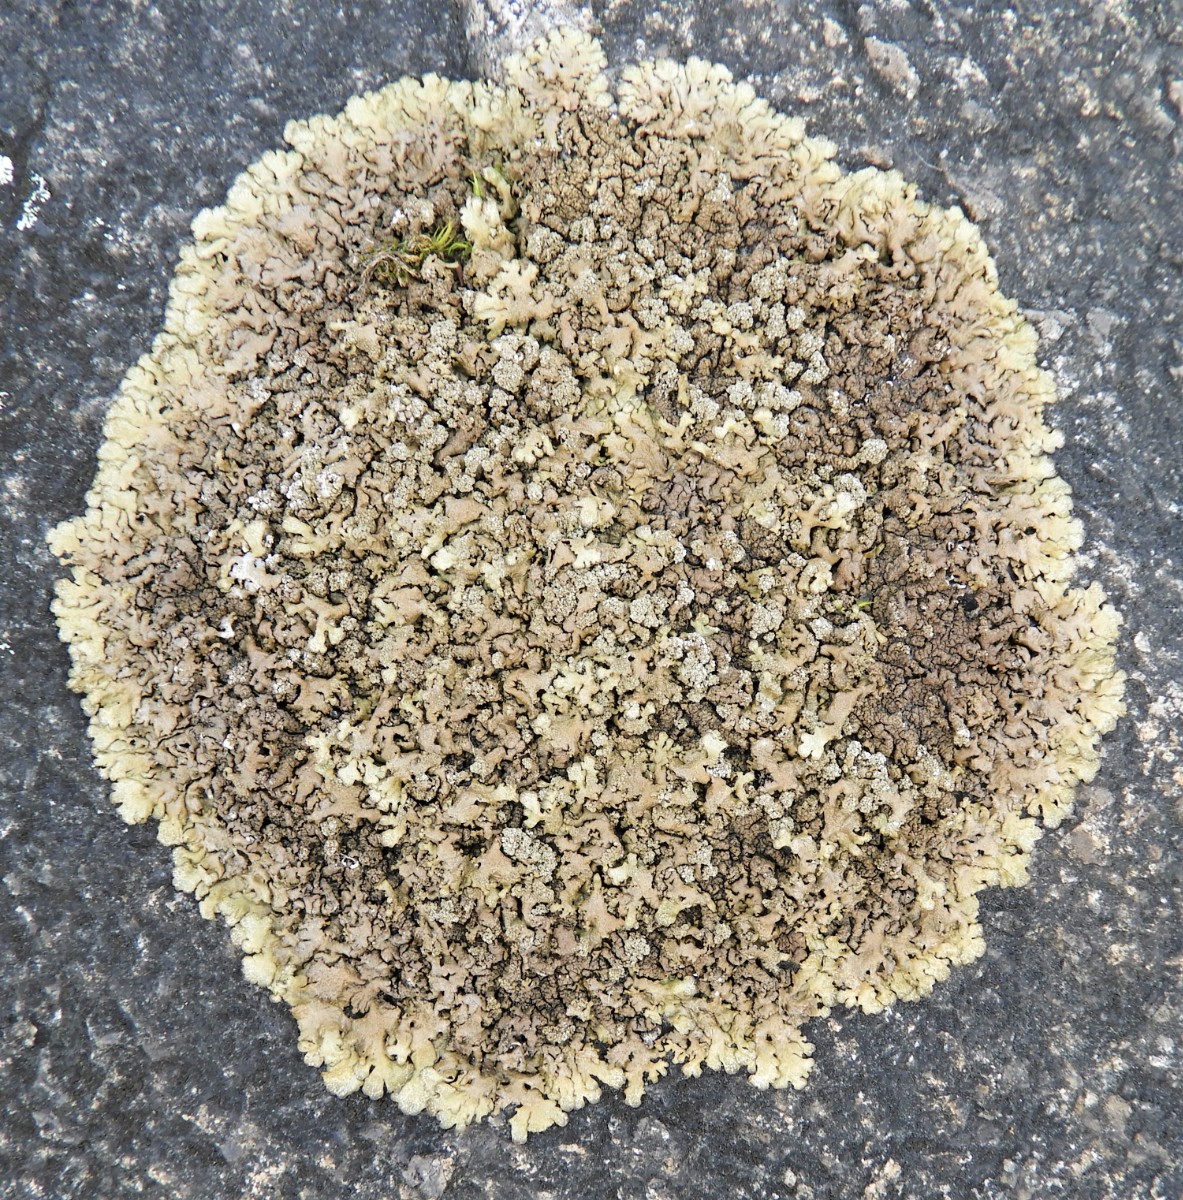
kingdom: Fungi
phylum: Ascomycota
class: Lecanoromycetes
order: Lecanorales
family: Parmeliaceae
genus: Xanthoparmelia
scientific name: Xanthoparmelia loxodes
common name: knudret skållav
